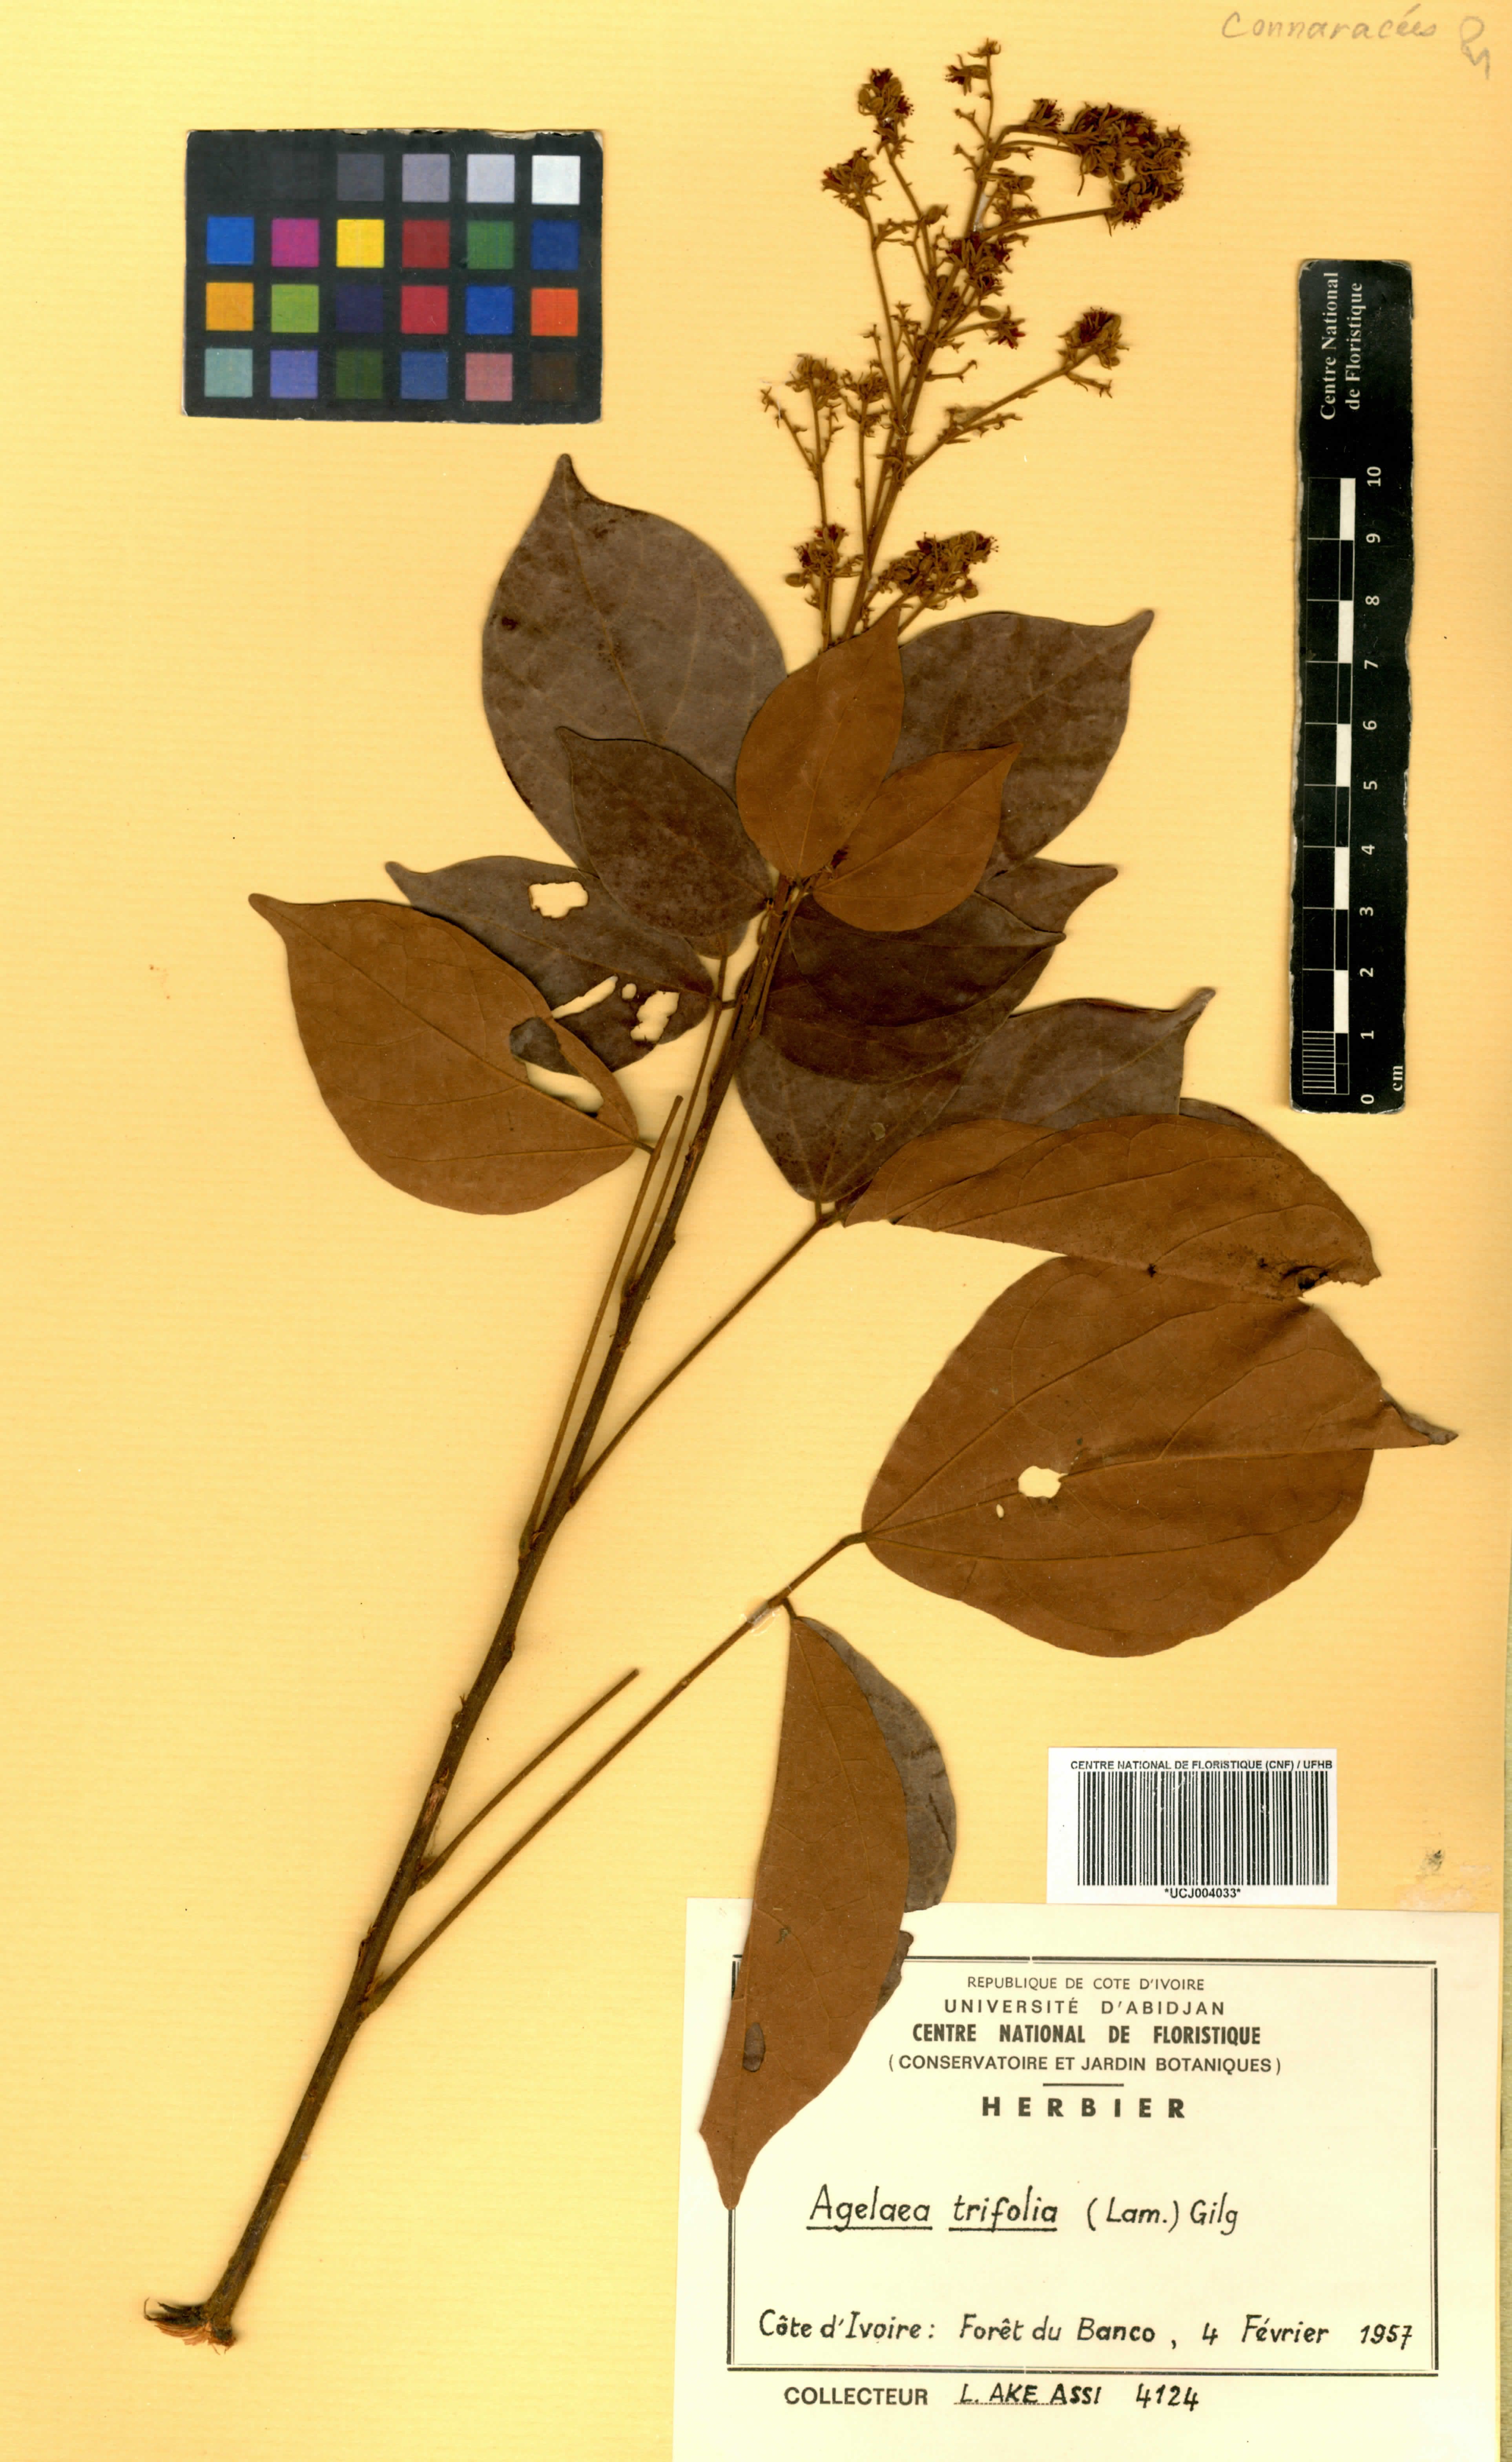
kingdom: Plantae
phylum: Tracheophyta
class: Magnoliopsida
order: Oxalidales
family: Connaraceae
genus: Agelaea
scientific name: Agelaea pentagyna
